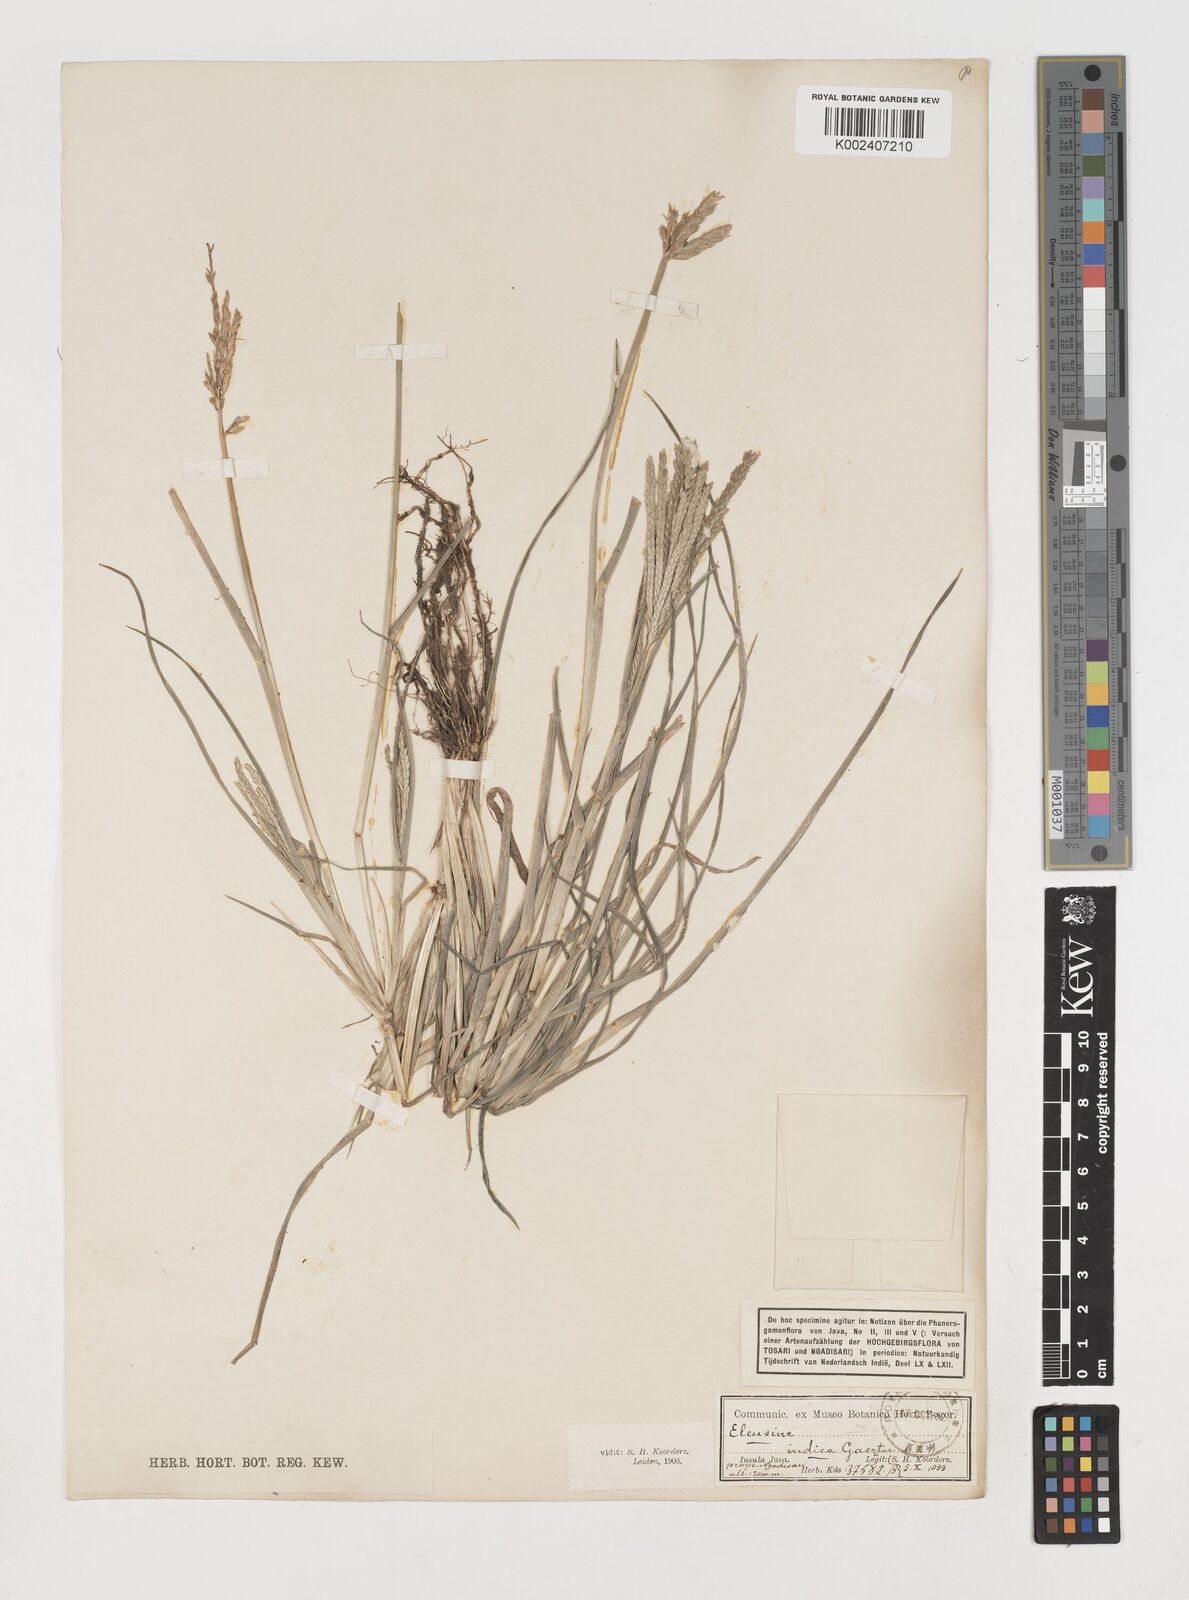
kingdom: Plantae
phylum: Tracheophyta
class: Liliopsida
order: Poales
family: Poaceae
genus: Eleusine
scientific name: Eleusine indica
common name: Yard-grass
